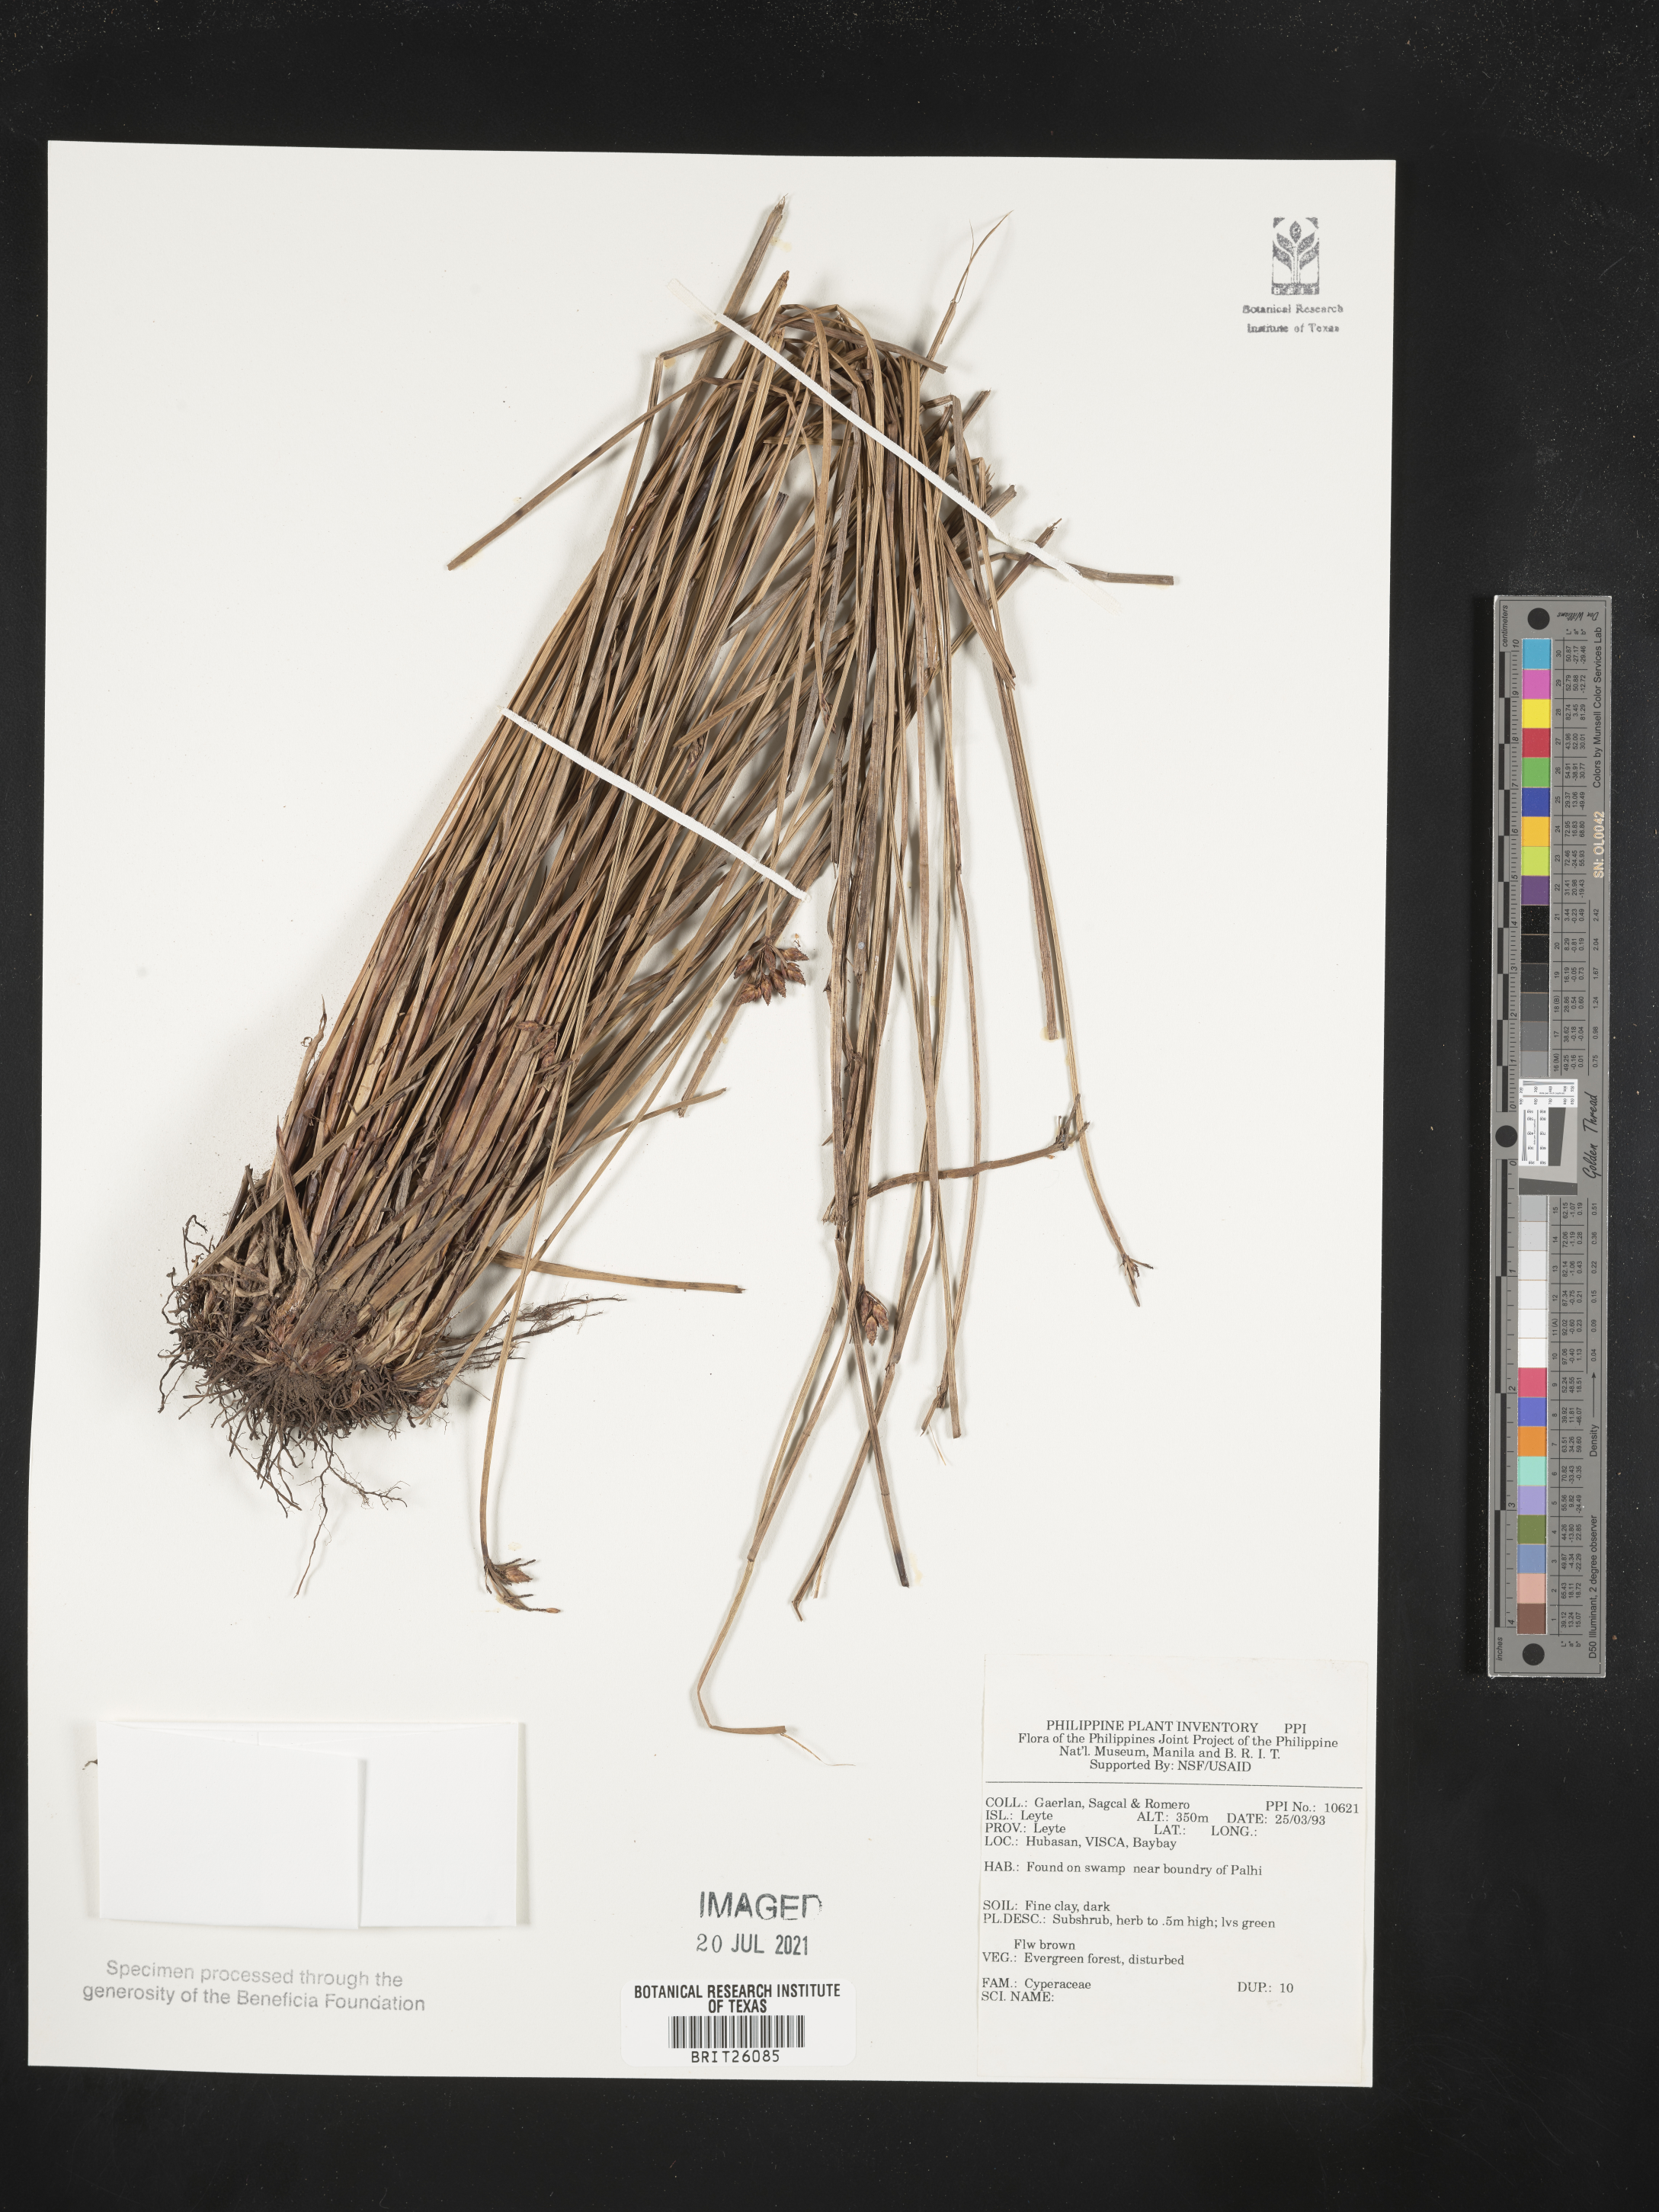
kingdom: Plantae
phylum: Tracheophyta
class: Liliopsida
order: Poales
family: Cyperaceae
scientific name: Cyperaceae
